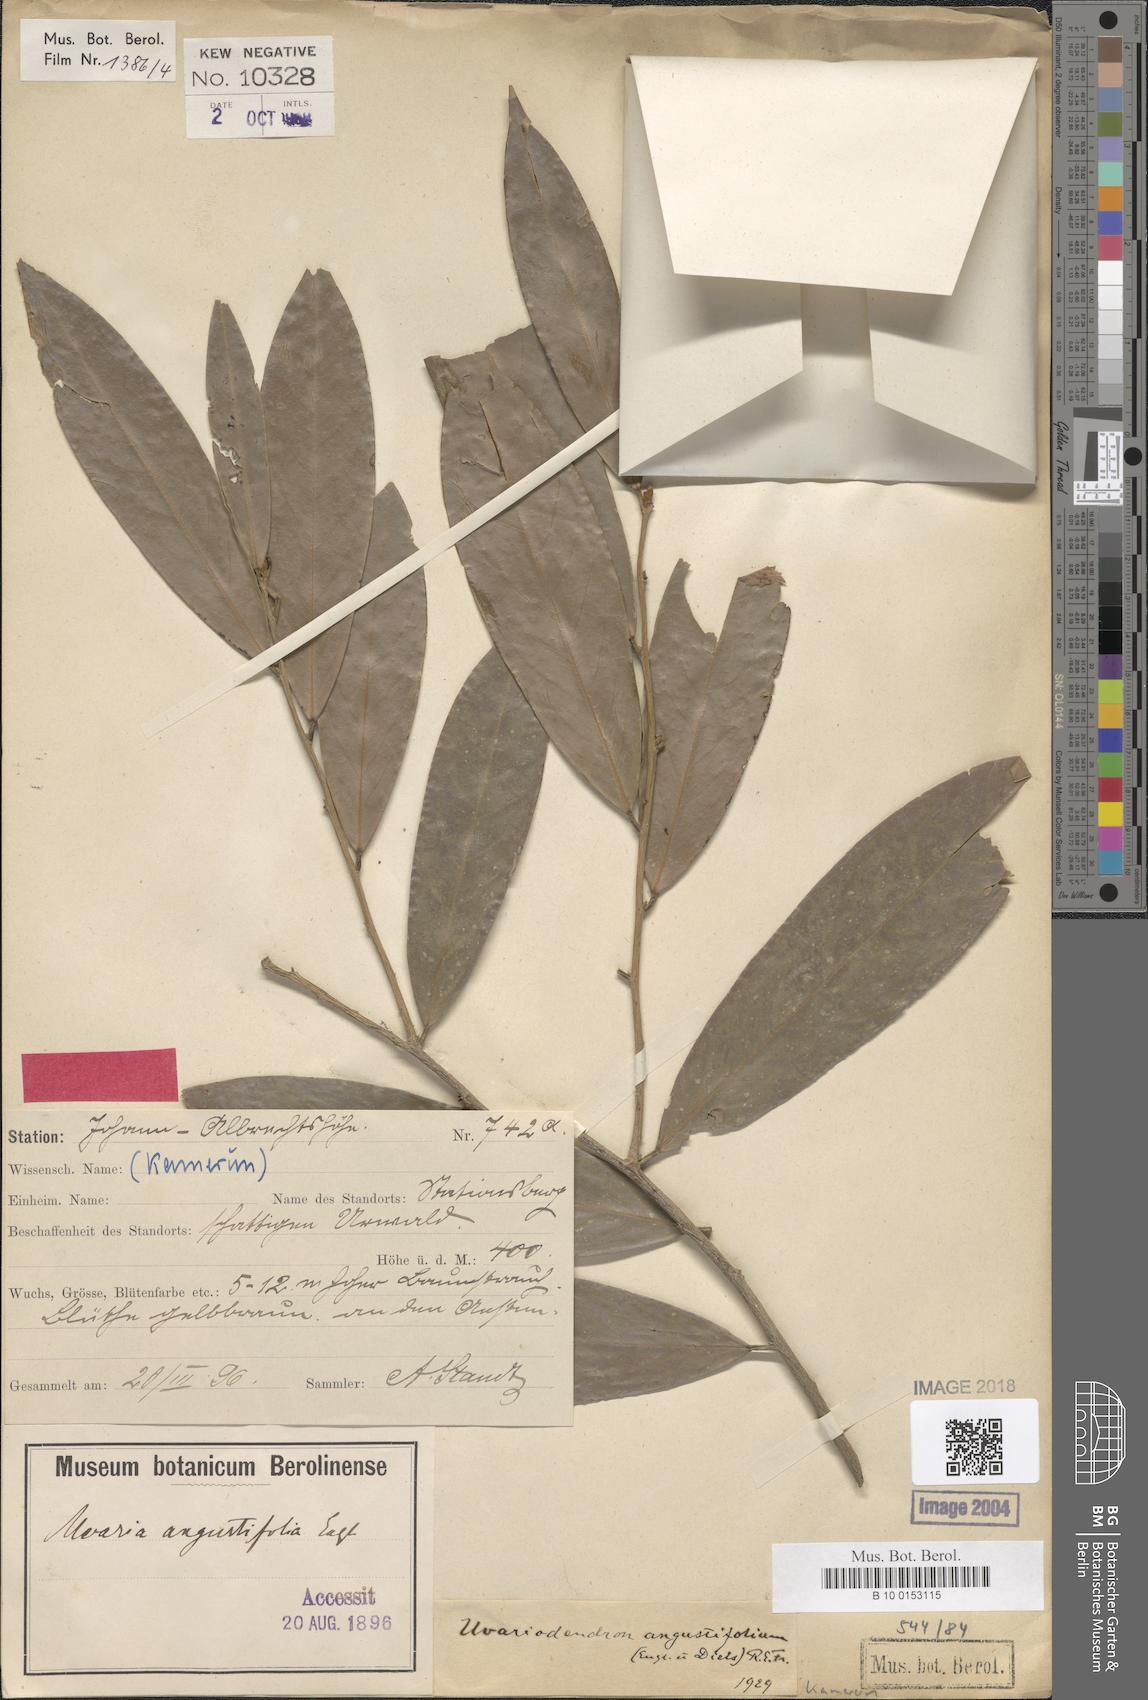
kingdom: Plantae
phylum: Tracheophyta
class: Magnoliopsida
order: Magnoliales
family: Annonaceae
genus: Uvariodendron
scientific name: Uvariodendron angustifolium
